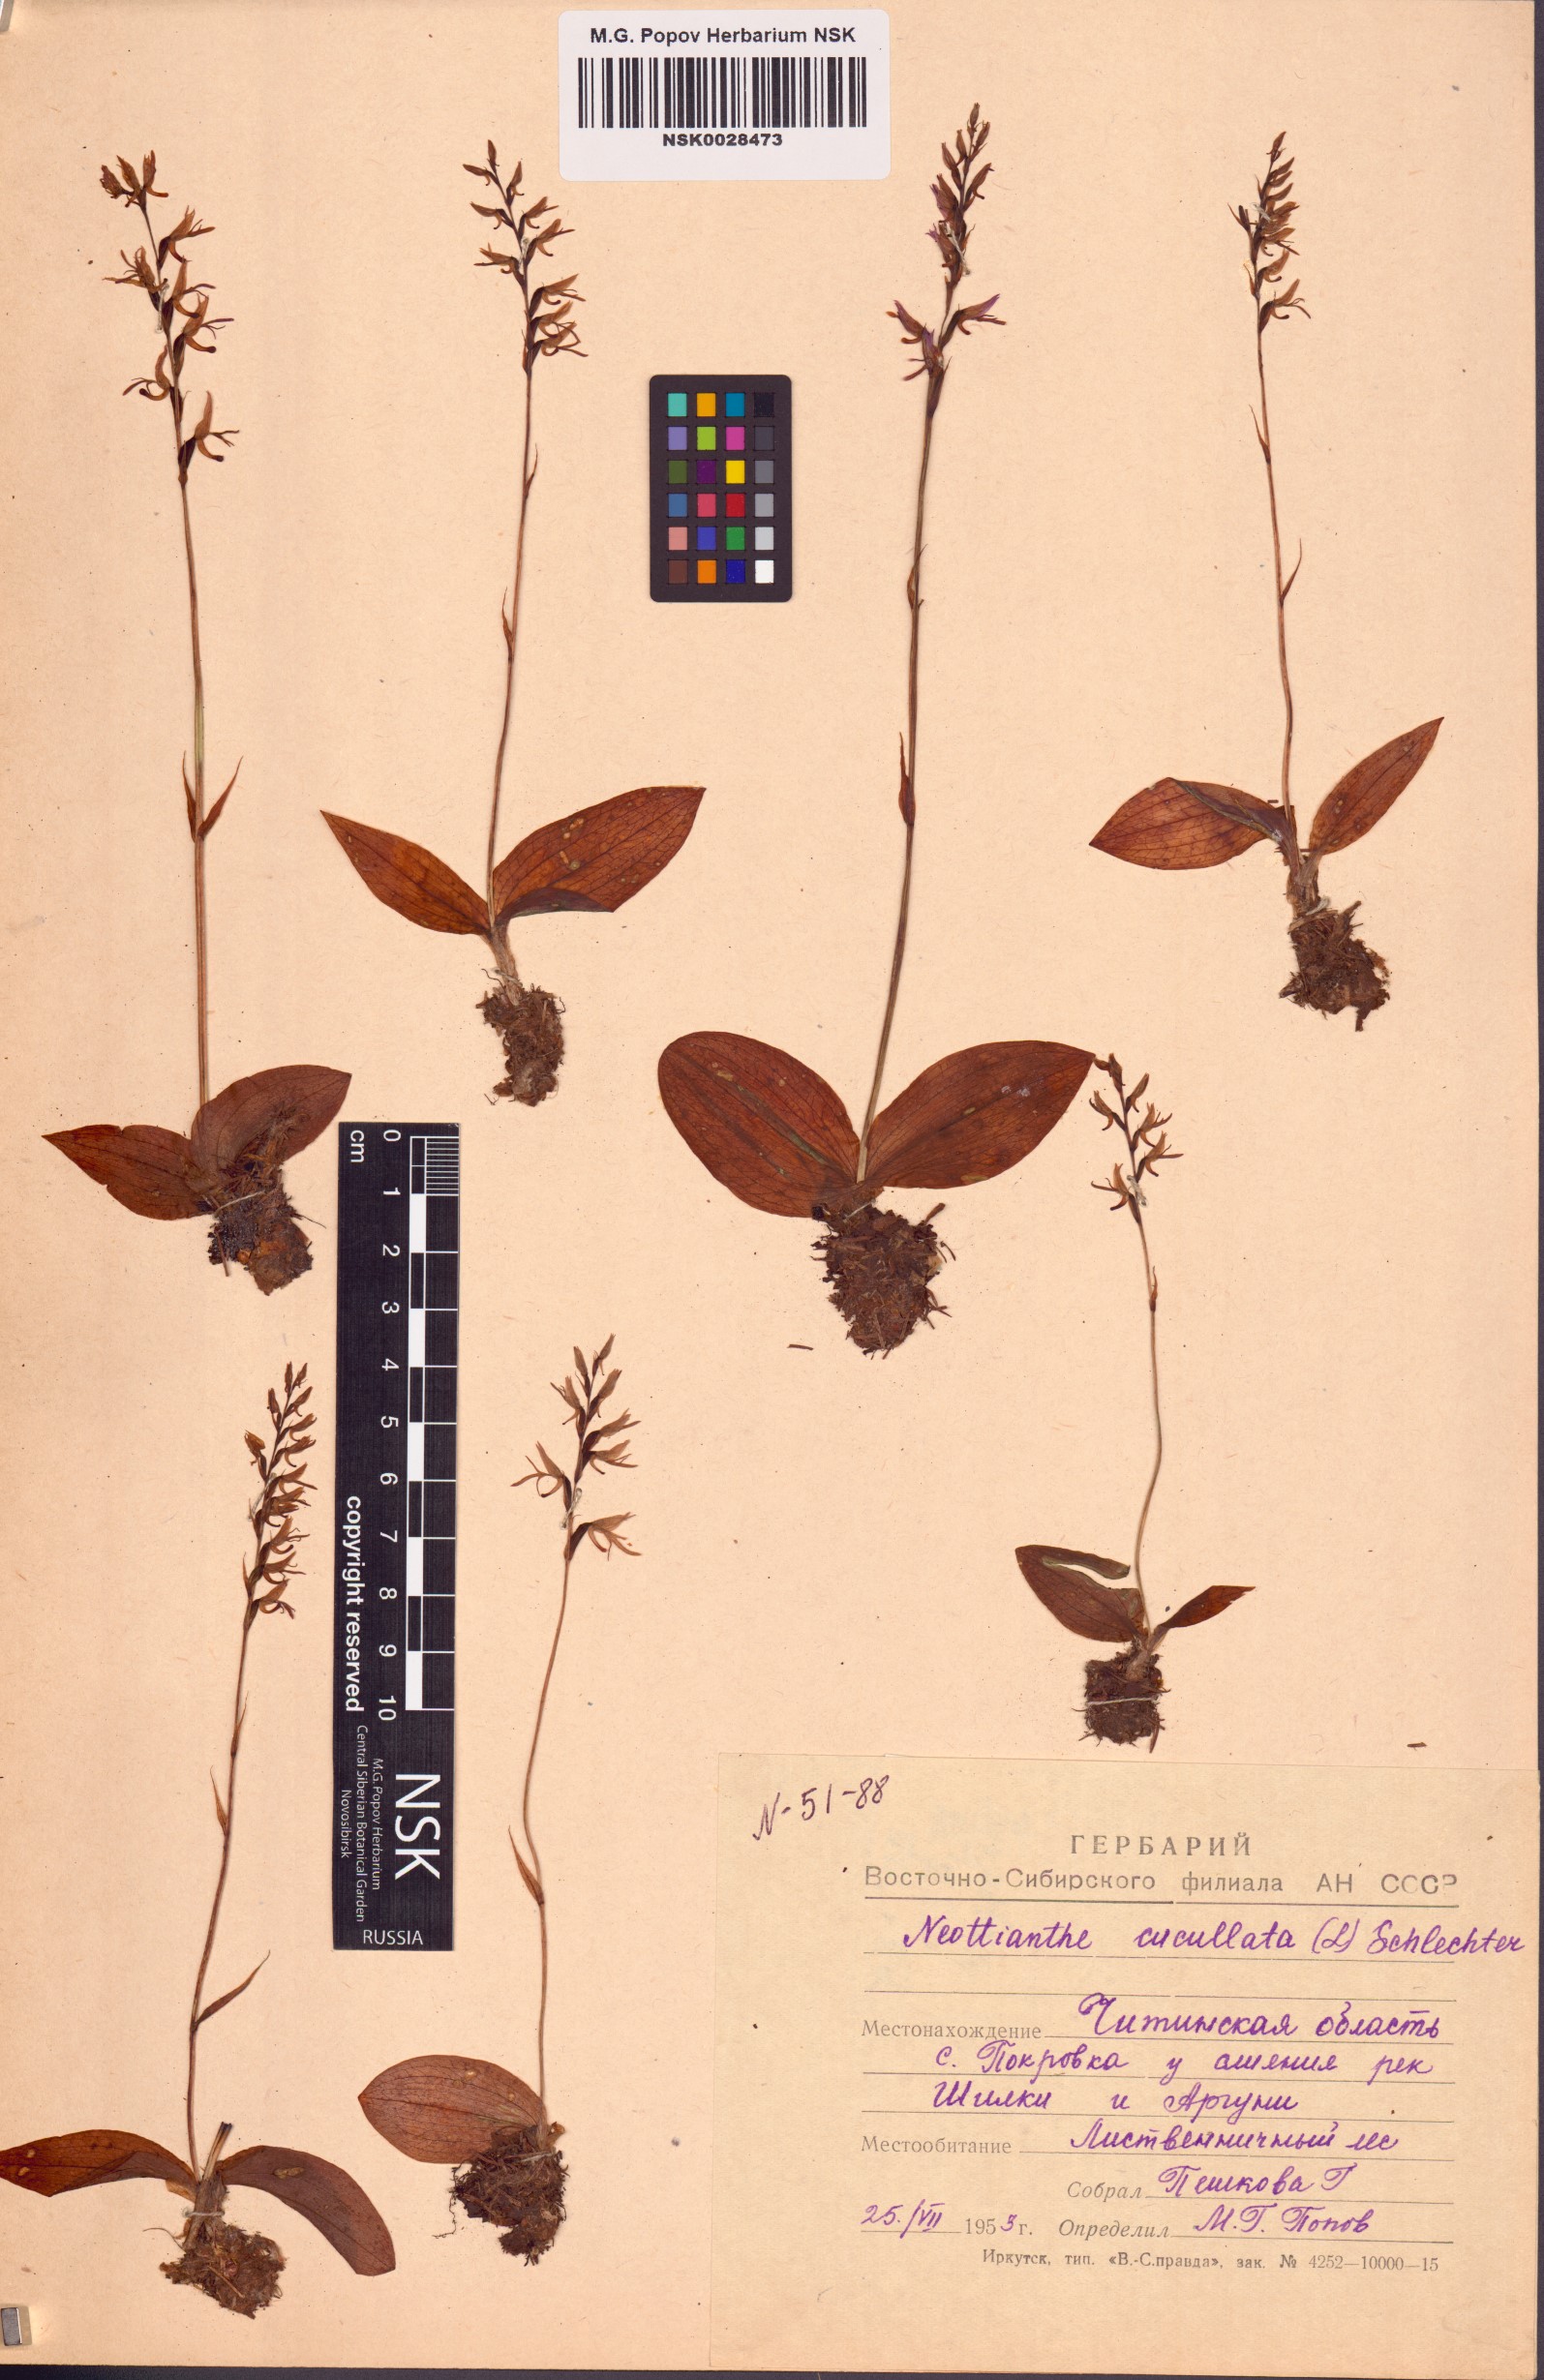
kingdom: Plantae
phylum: Tracheophyta
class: Liliopsida
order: Asparagales
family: Orchidaceae
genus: Hemipilia
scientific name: Hemipilia cucullata
